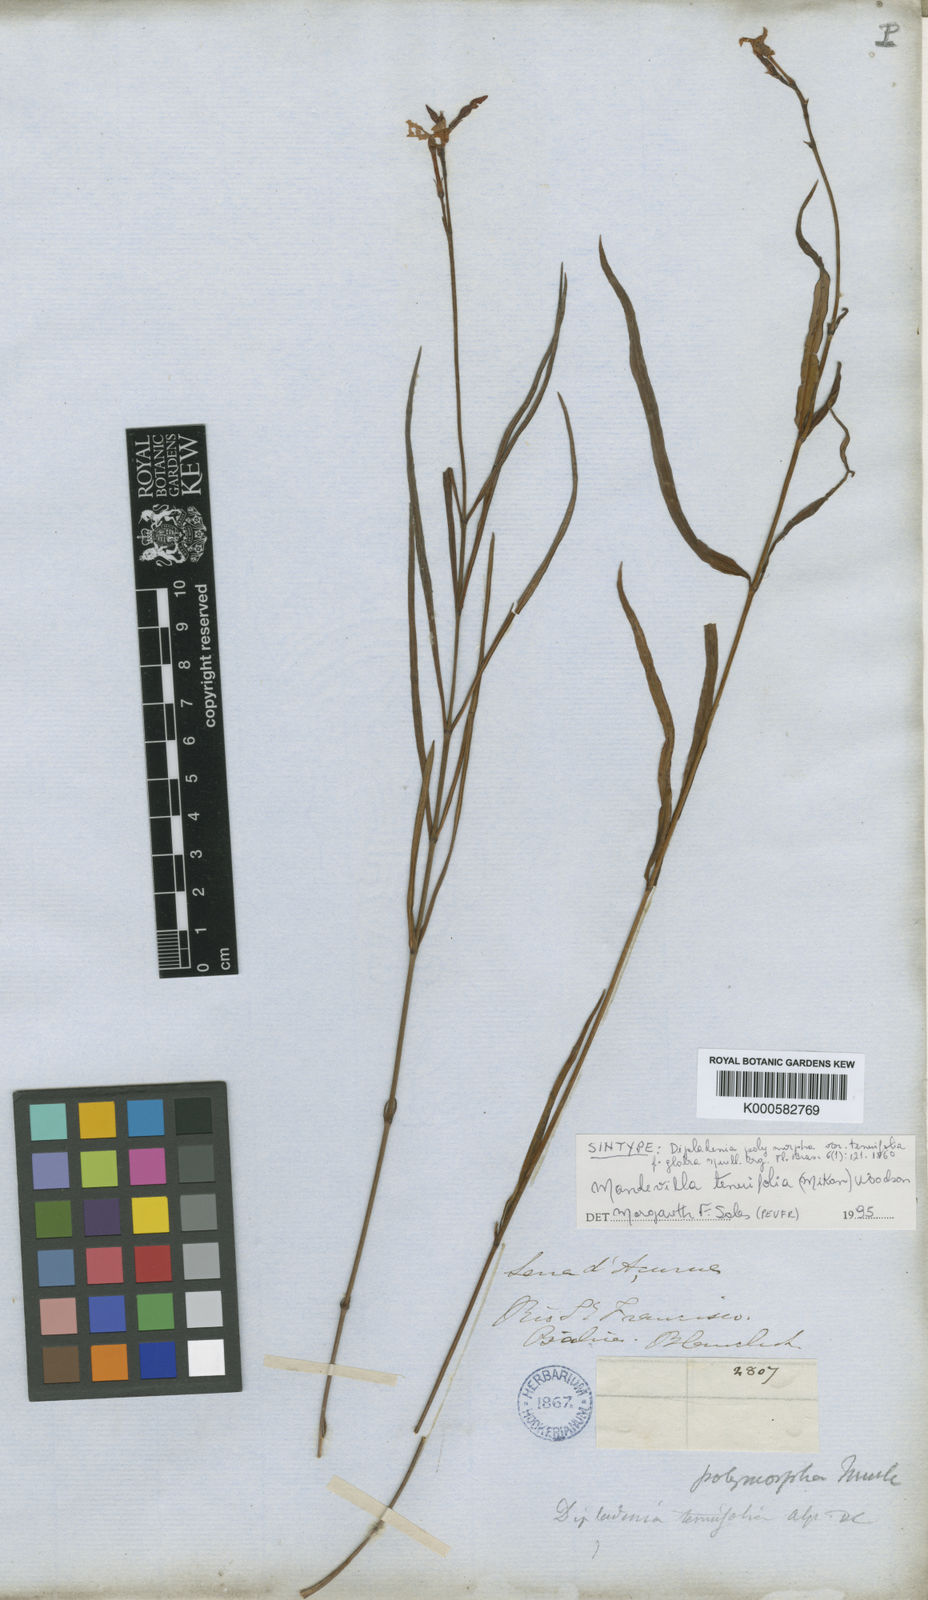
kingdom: Plantae
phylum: Tracheophyta
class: Magnoliopsida
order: Gentianales
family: Apocynaceae
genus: Mandevilla
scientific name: Mandevilla tenuifolia
